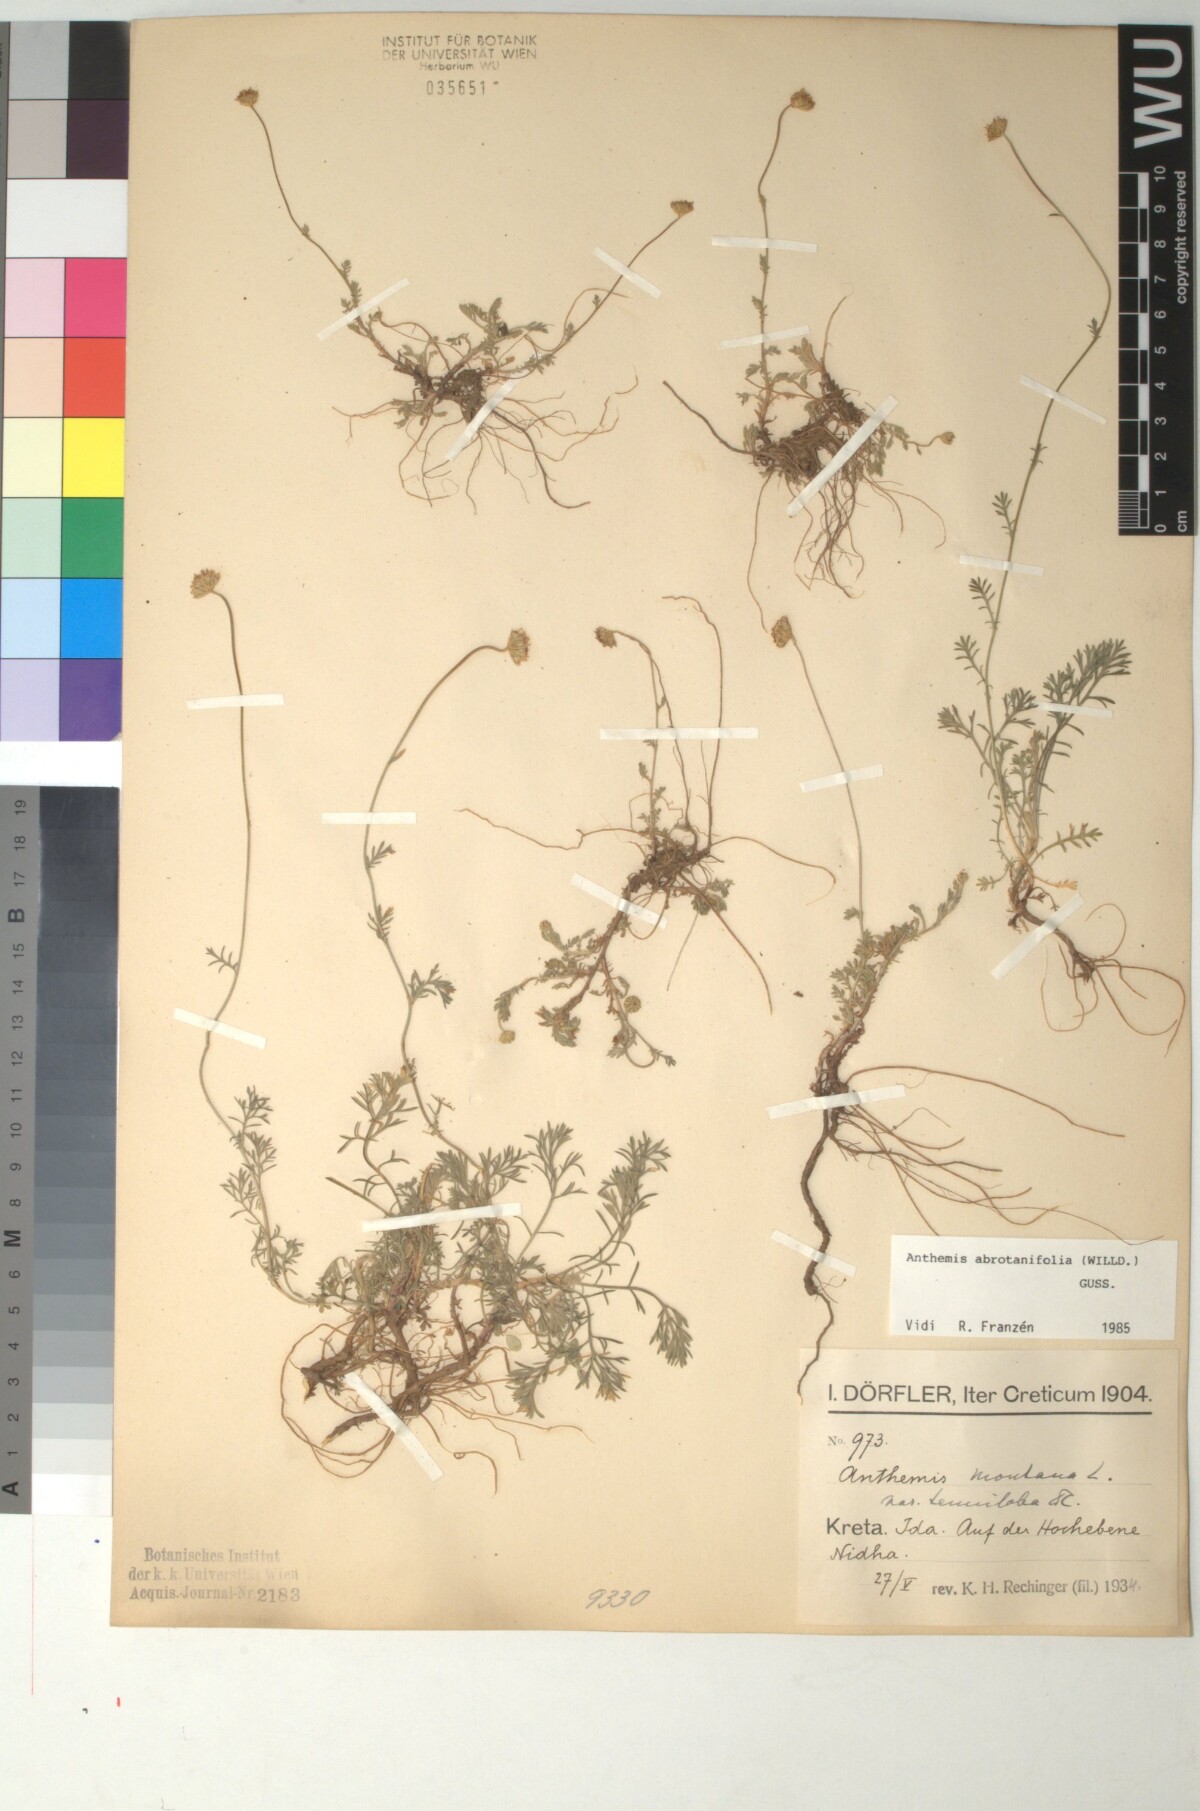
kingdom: Plantae
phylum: Tracheophyta
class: Magnoliopsida
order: Asterales
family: Asteraceae
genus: Anthemis
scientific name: Anthemis abrotanifolia
